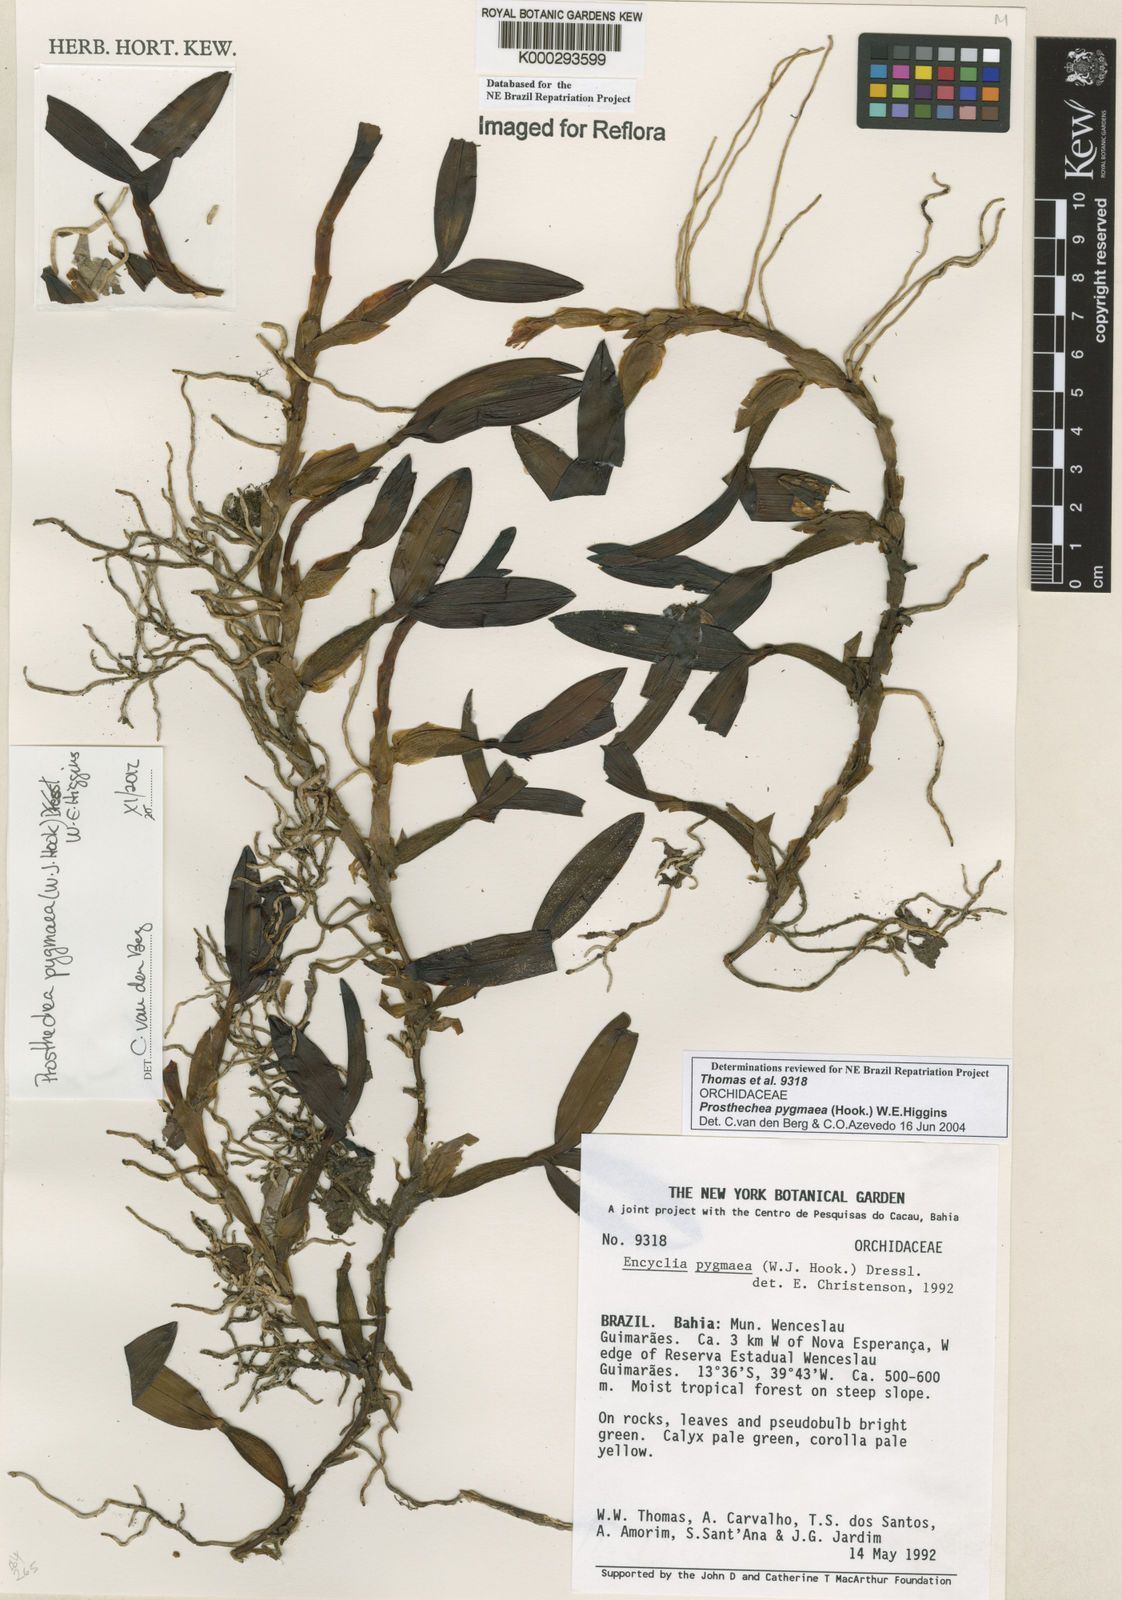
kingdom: Plantae
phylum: Tracheophyta
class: Liliopsida
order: Asparagales
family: Orchidaceae
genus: Prosthechea
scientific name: Prosthechea pygmaea
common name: Dwarf butterfly orchid
